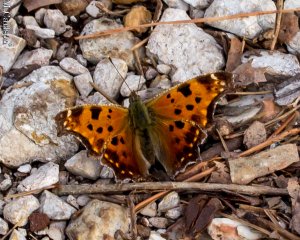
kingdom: Animalia
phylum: Arthropoda
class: Insecta
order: Lepidoptera
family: Nymphalidae
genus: Polygonia
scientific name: Polygonia comma
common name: Eastern Comma
